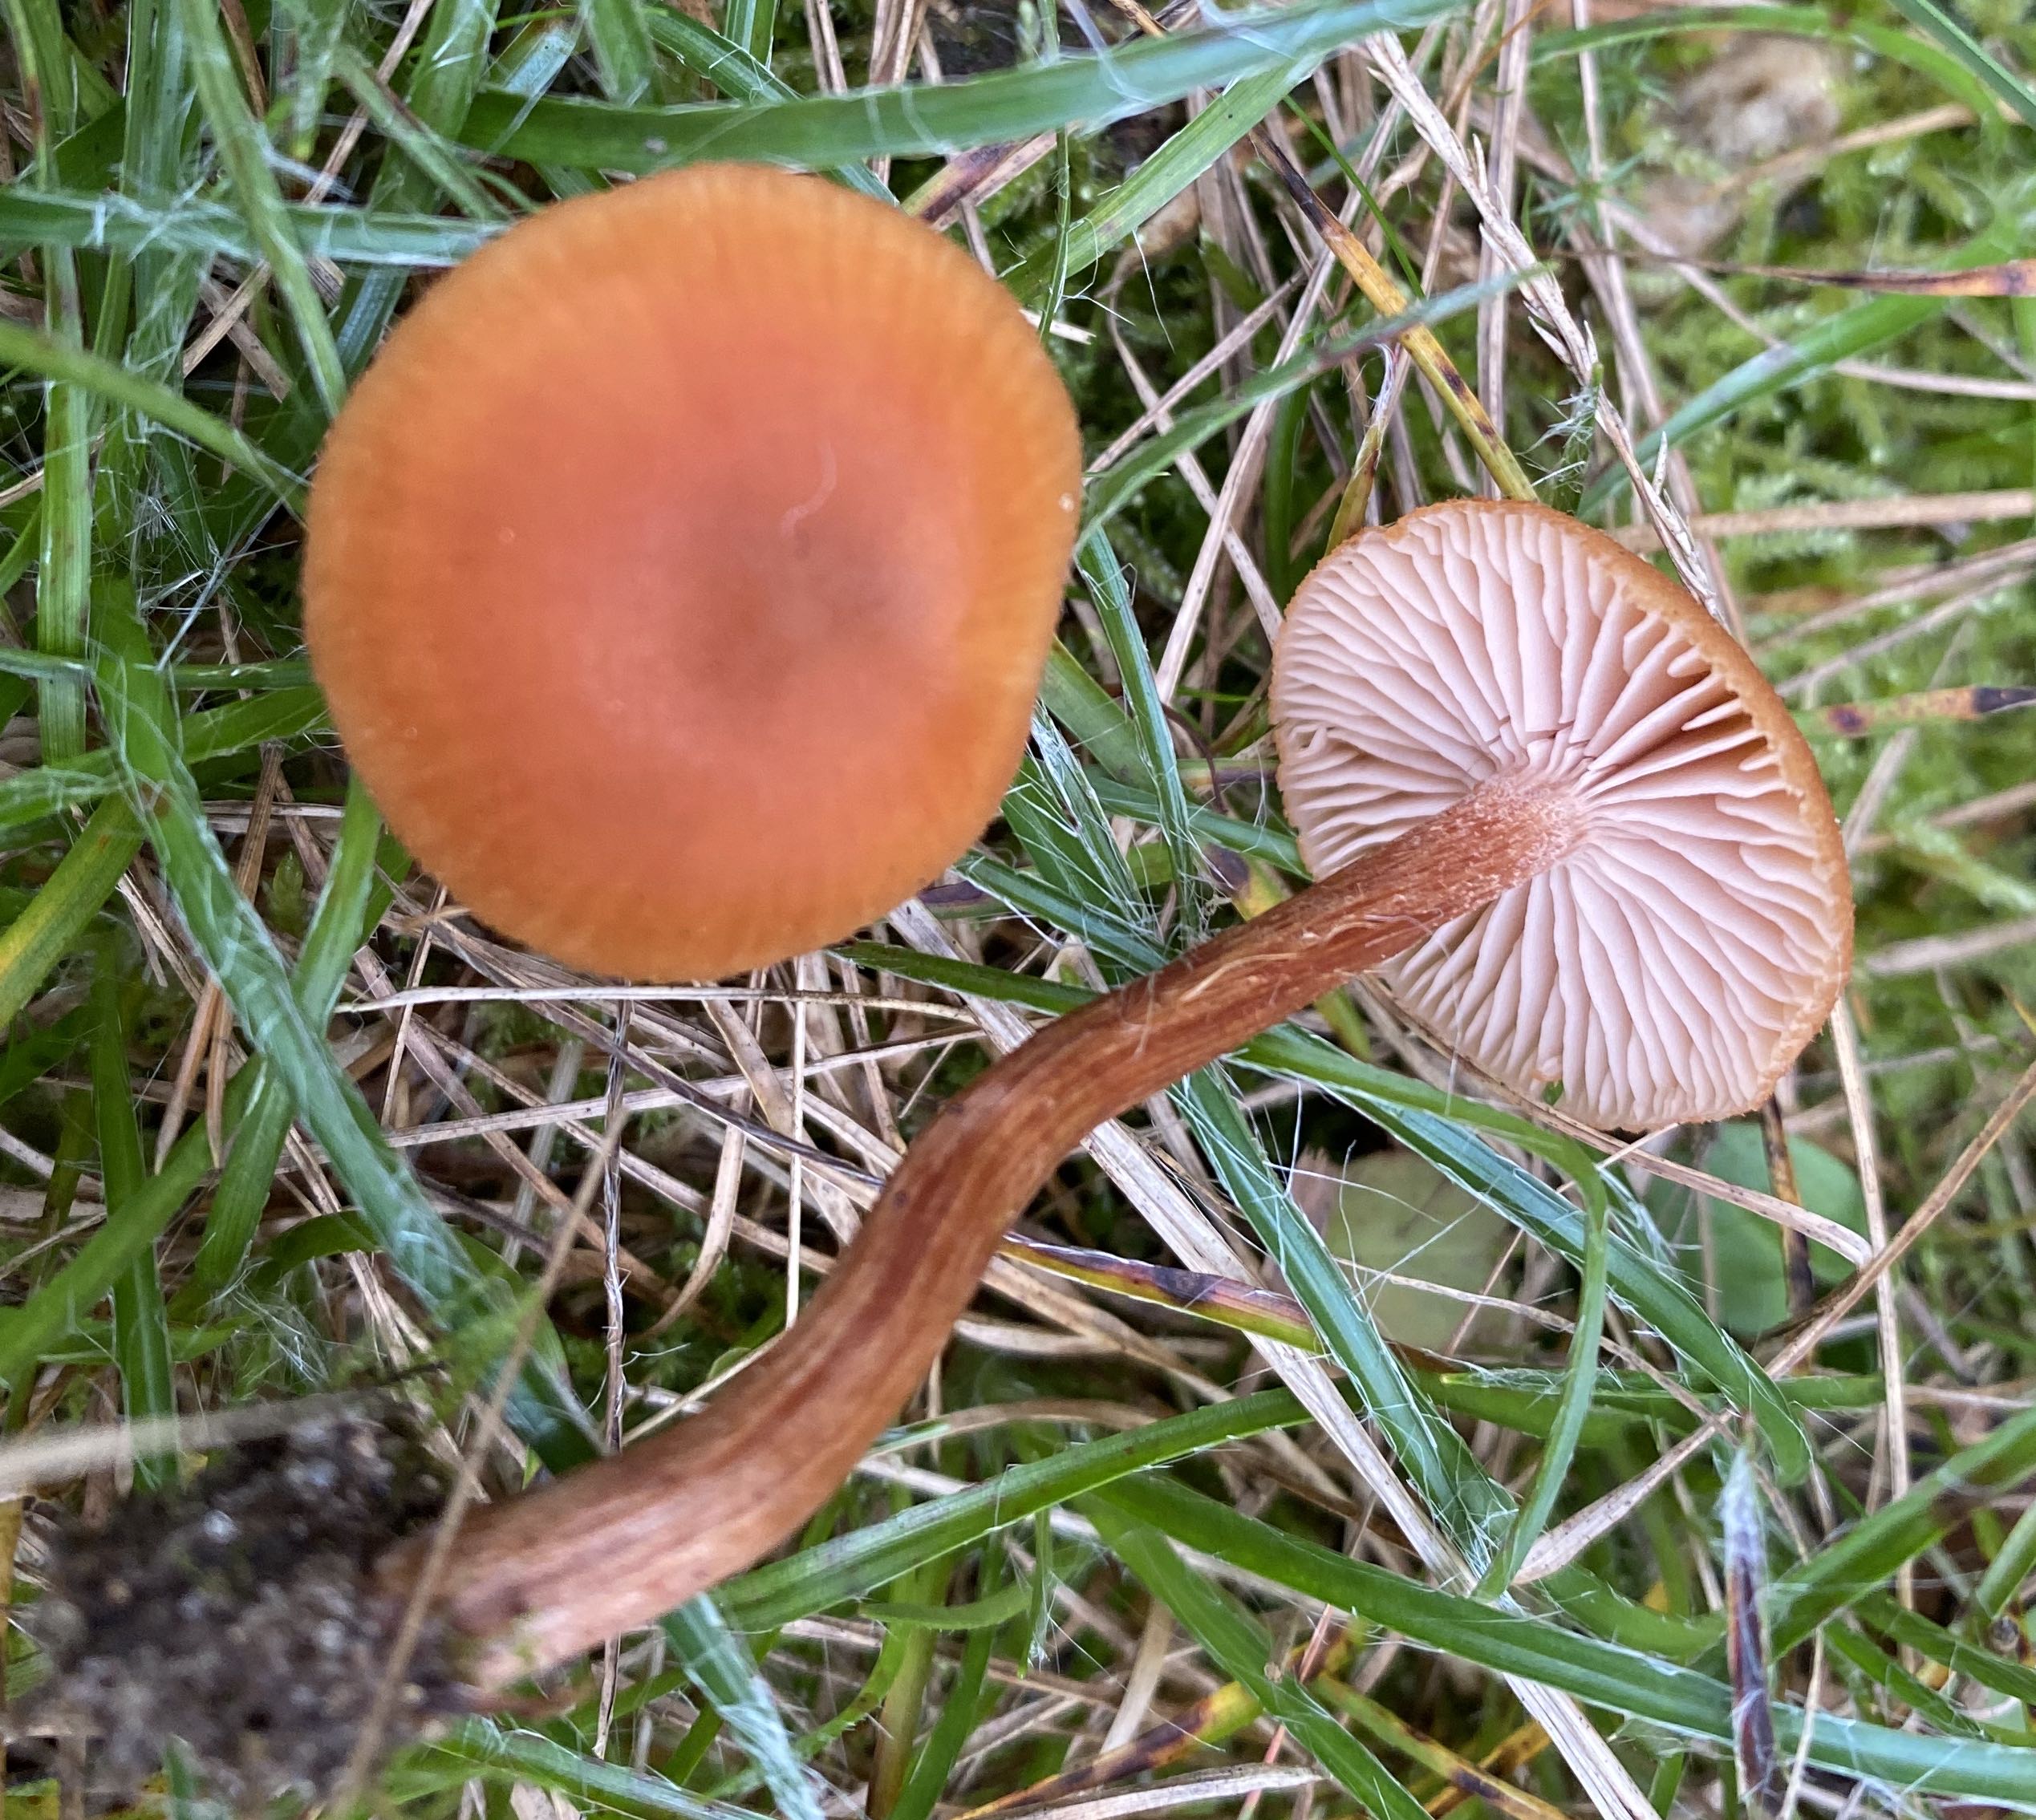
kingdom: Fungi
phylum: Basidiomycota
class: Agaricomycetes
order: Agaricales
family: Hydnangiaceae
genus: Laccaria
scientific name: Laccaria proxima
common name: stor ametysthat
